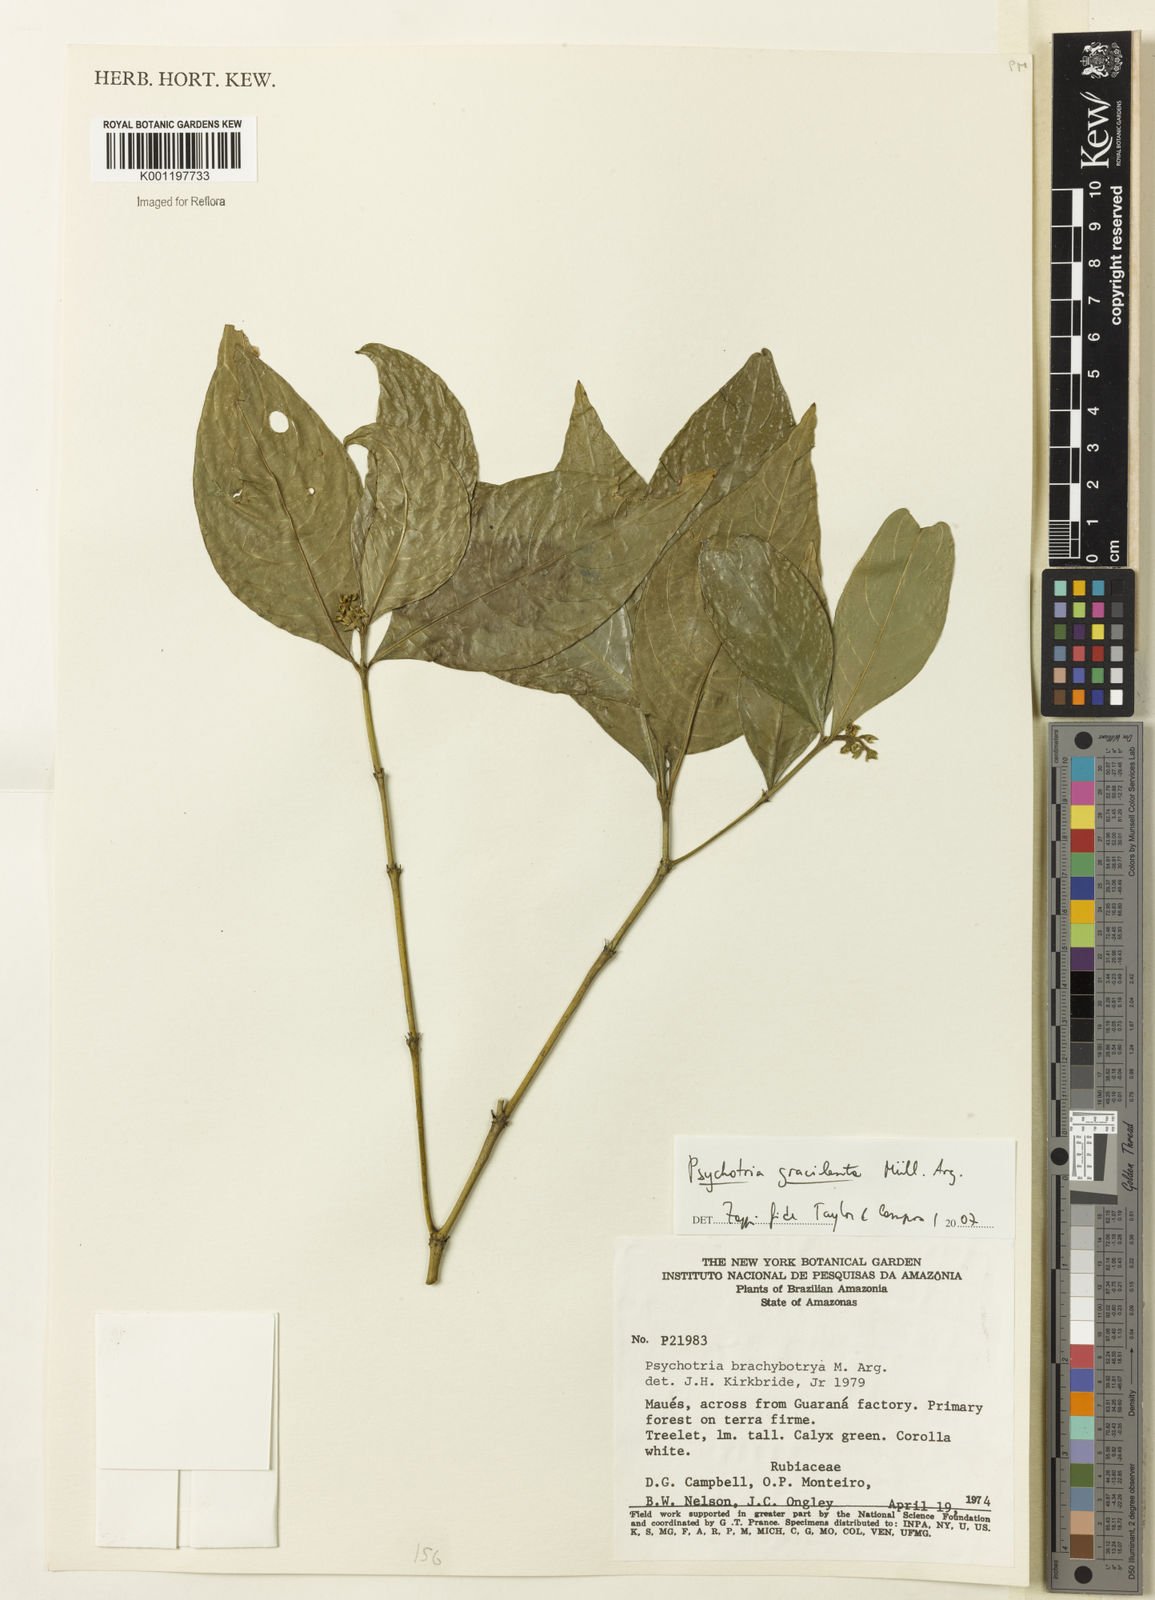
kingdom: Plantae
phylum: Tracheophyta
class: Magnoliopsida
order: Gentianales
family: Rubiaceae
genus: Psychotria
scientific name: Psychotria
